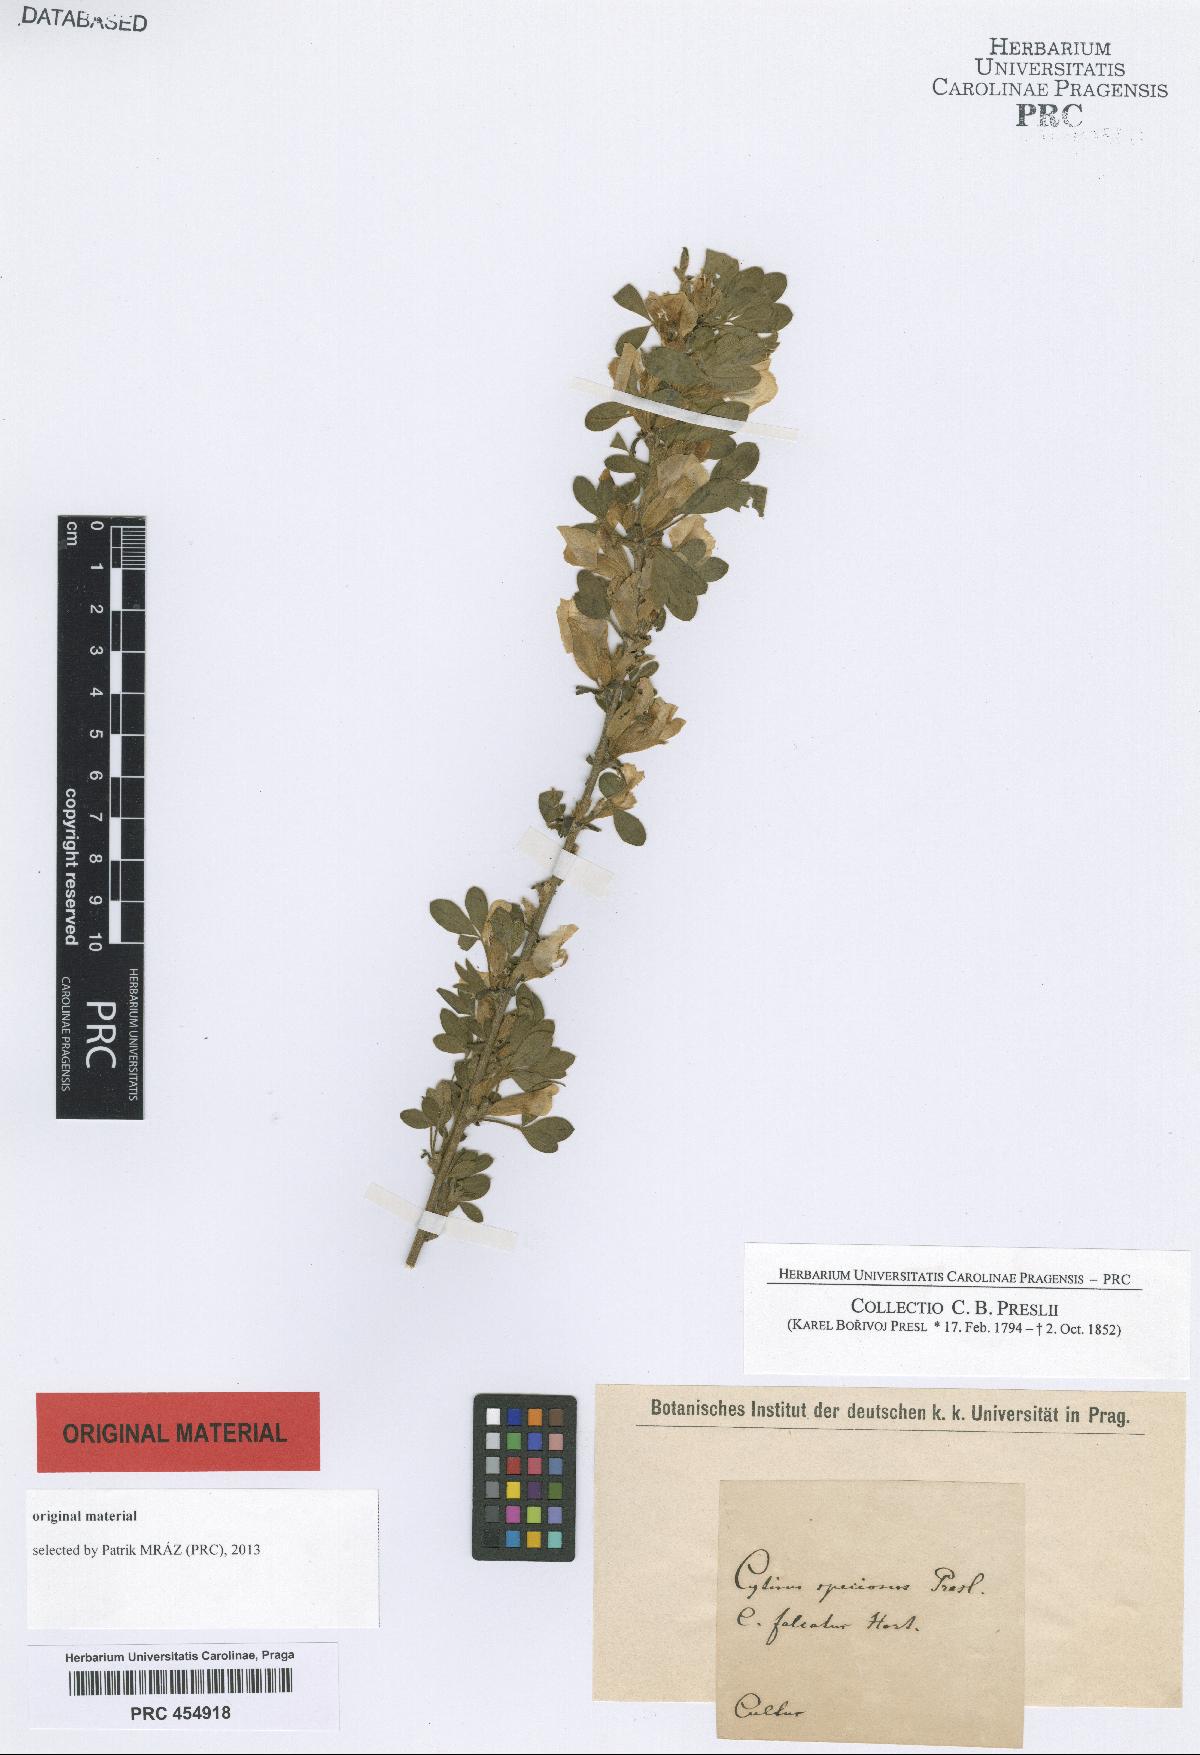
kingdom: Plantae
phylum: Tracheophyta
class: Magnoliopsida
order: Fabales
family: Fabaceae
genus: Chamaecytisus
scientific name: Chamaecytisus hirsutus
